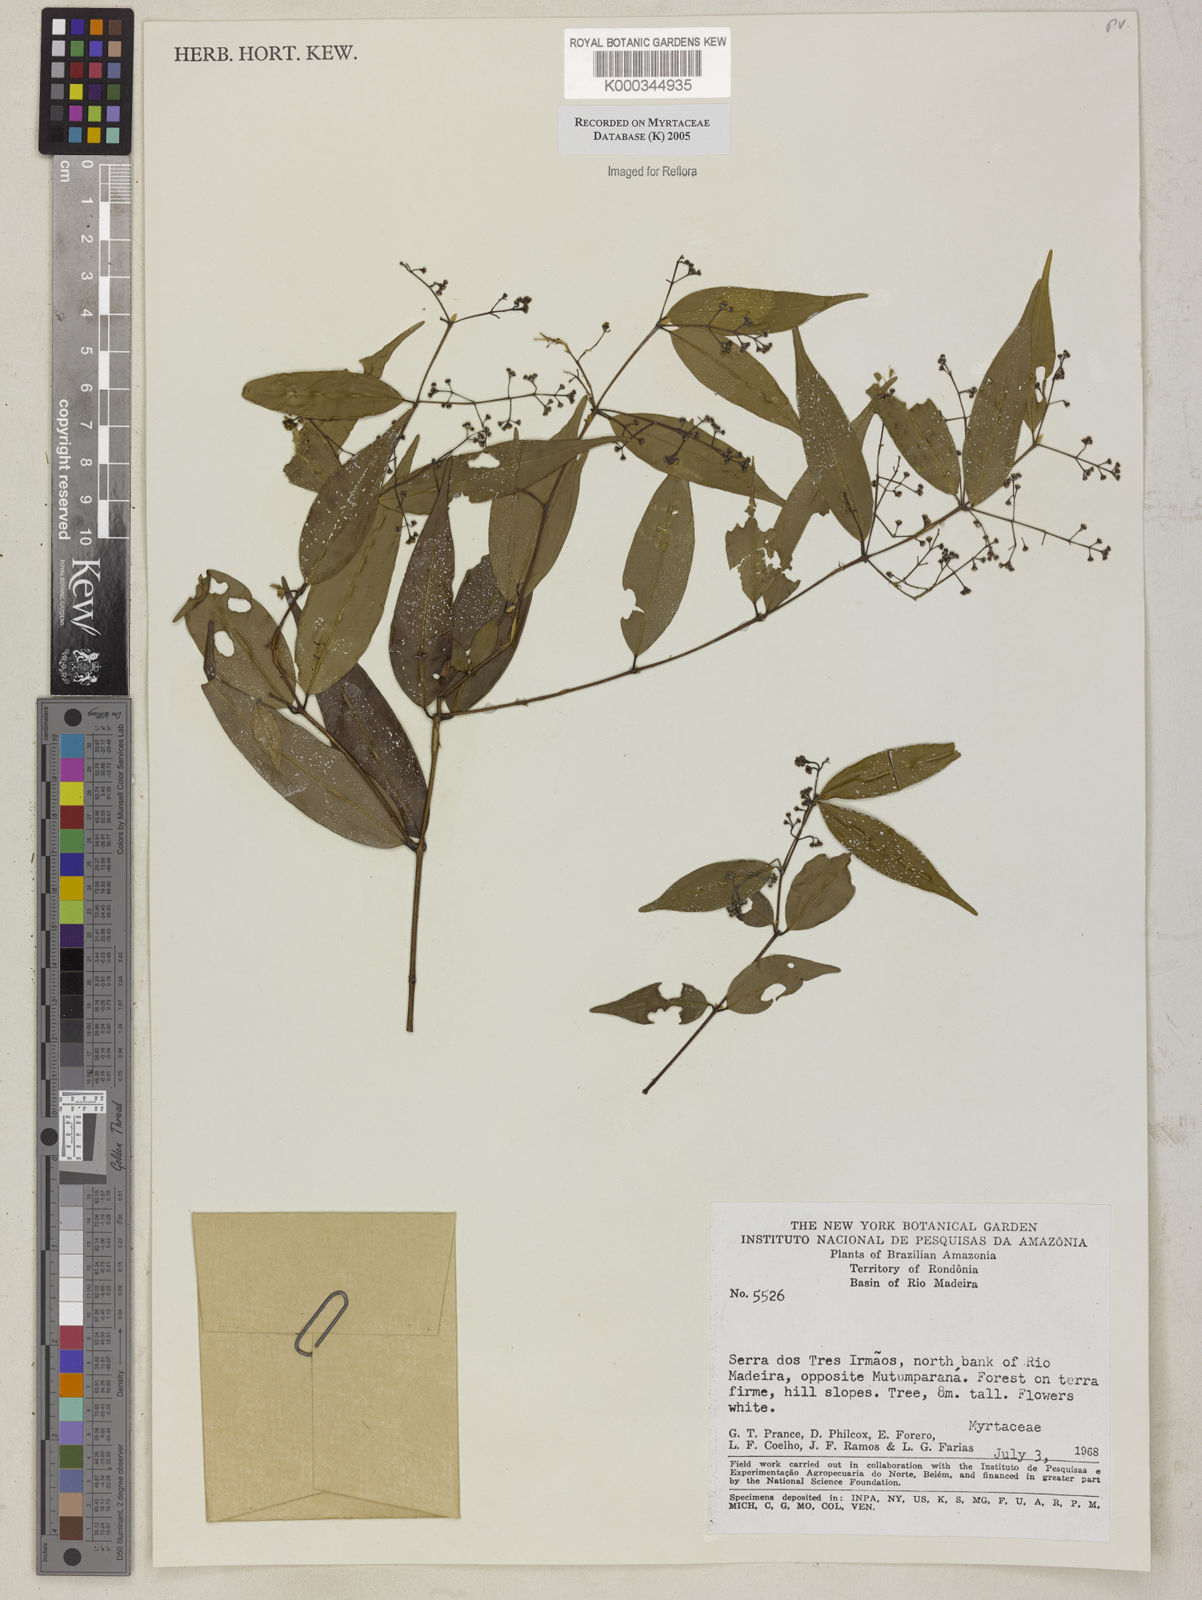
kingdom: Plantae
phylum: Tracheophyta
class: Magnoliopsida
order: Myrtales
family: Myrtaceae
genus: Myrcia
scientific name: Myrcia
